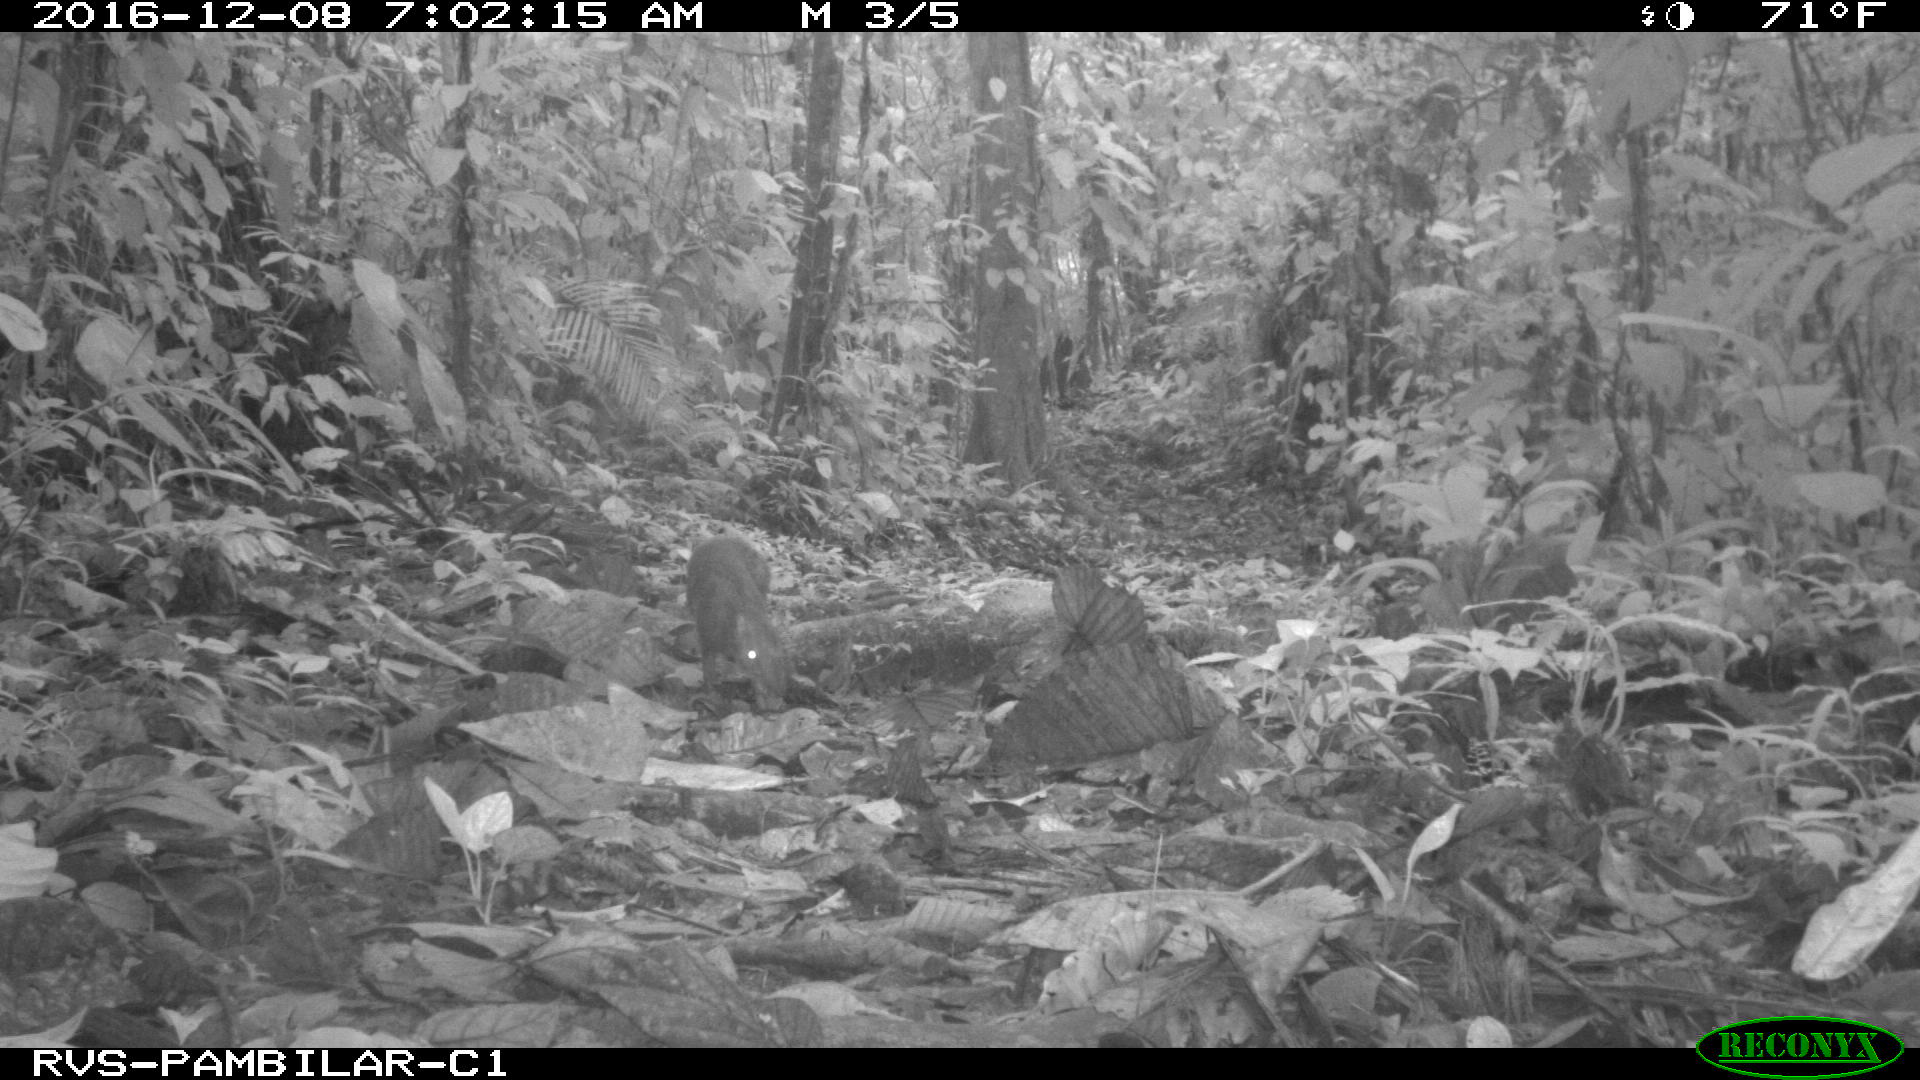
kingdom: Animalia
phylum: Chordata
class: Mammalia
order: Rodentia
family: Dasyproctidae
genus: Dasyprocta
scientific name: Dasyprocta punctata
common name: Central american agouti
